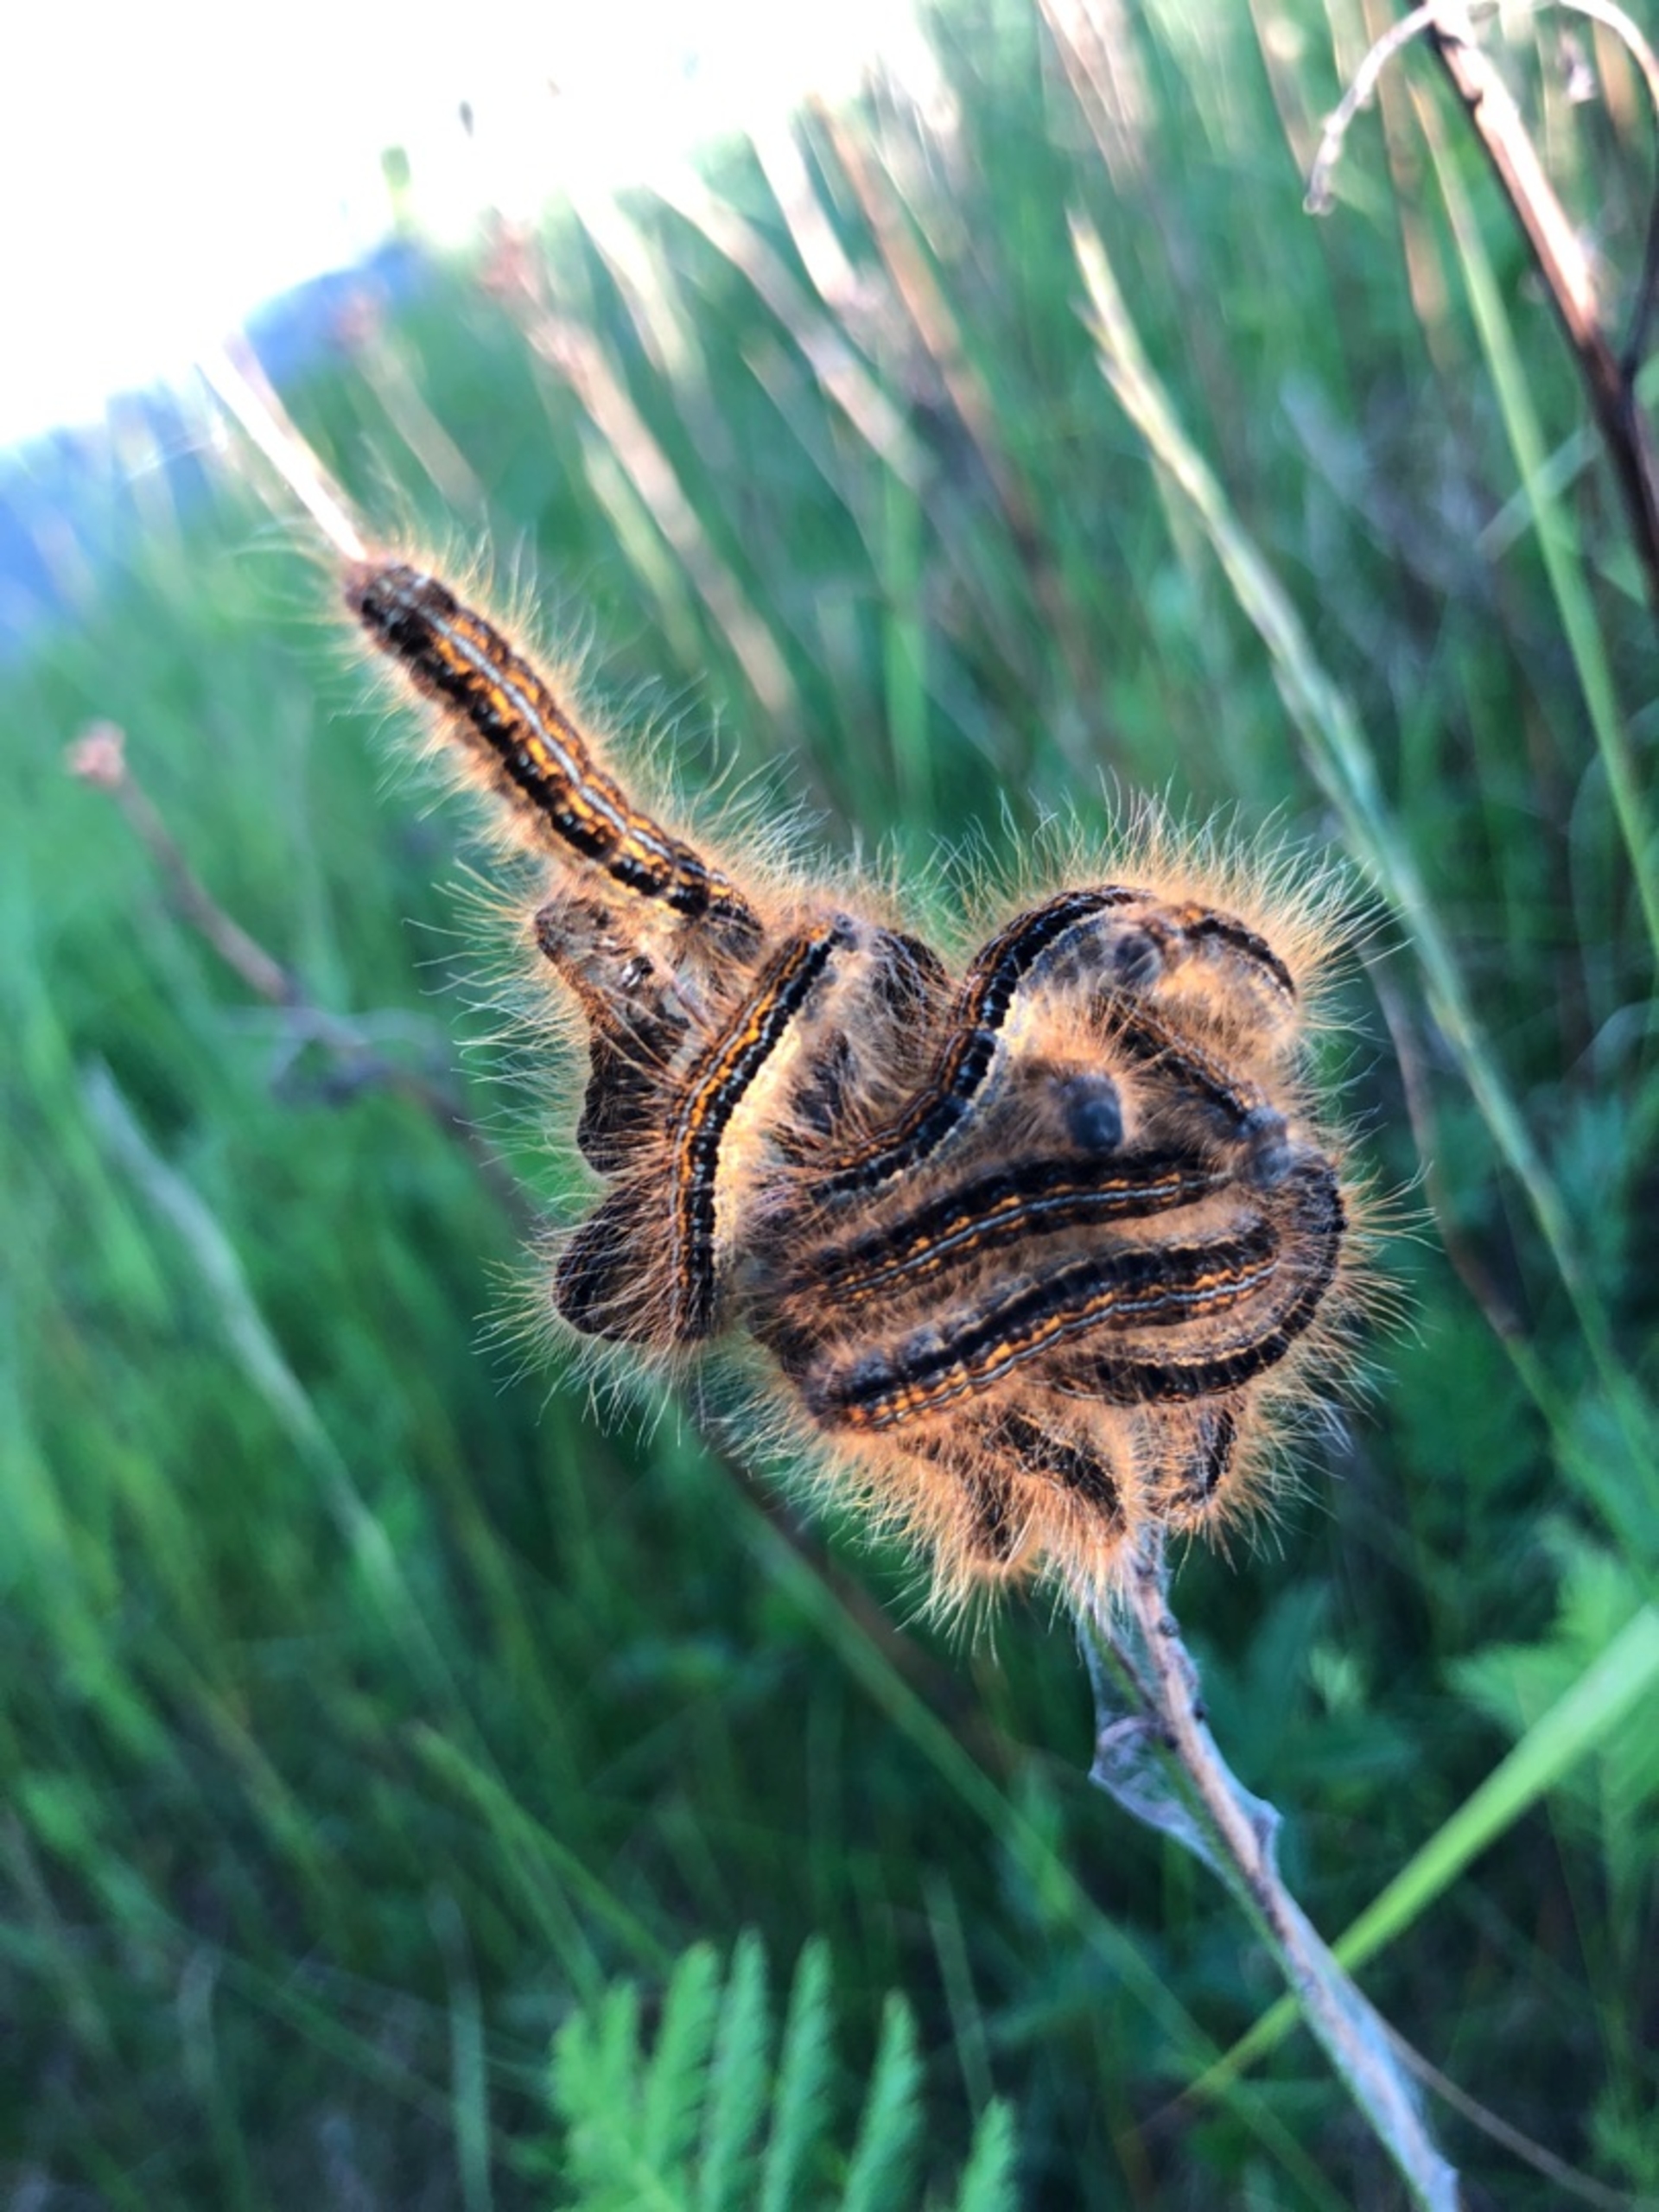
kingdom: Animalia
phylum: Arthropoda
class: Insecta
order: Lepidoptera
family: Lasiocampidae
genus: Malacosoma
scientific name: Malacosoma castrensis
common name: Redespinder
